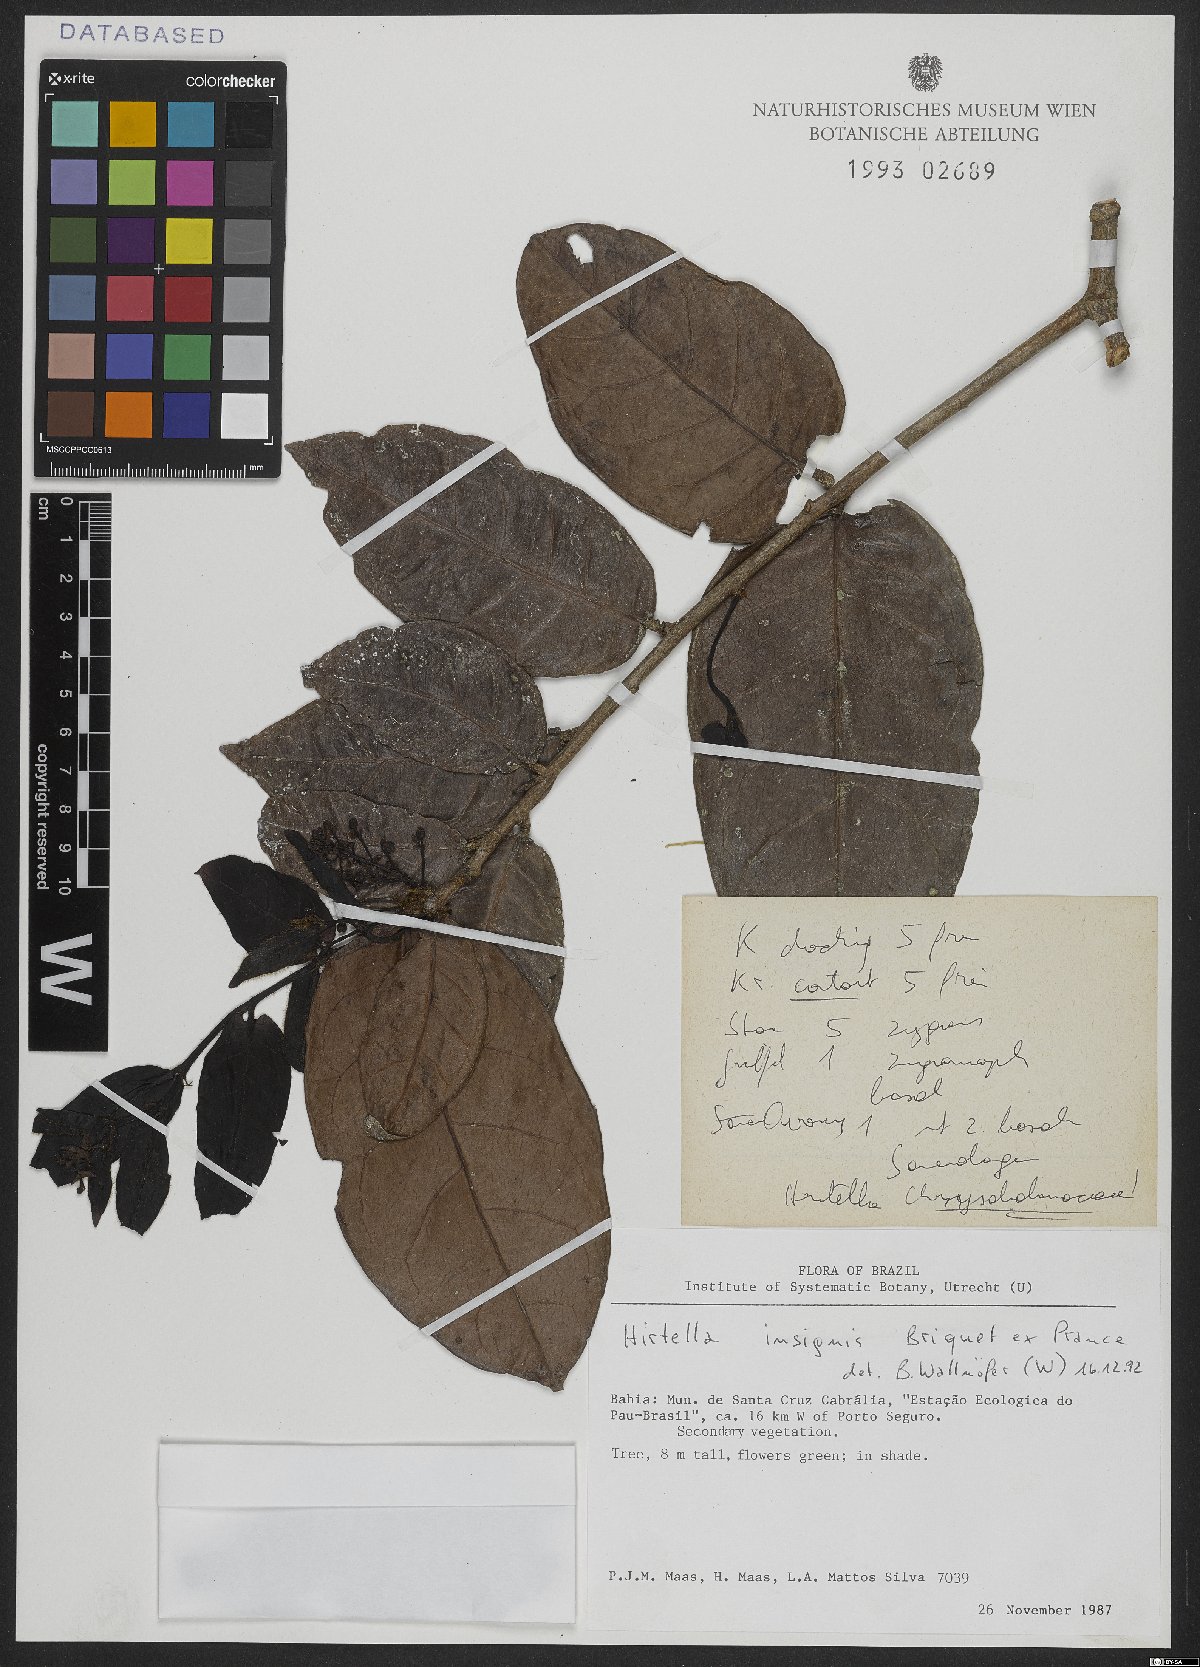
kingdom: Plantae
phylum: Tracheophyta
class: Magnoliopsida
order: Malpighiales
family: Chrysobalanaceae
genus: Hirtella
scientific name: Hirtella insignis
